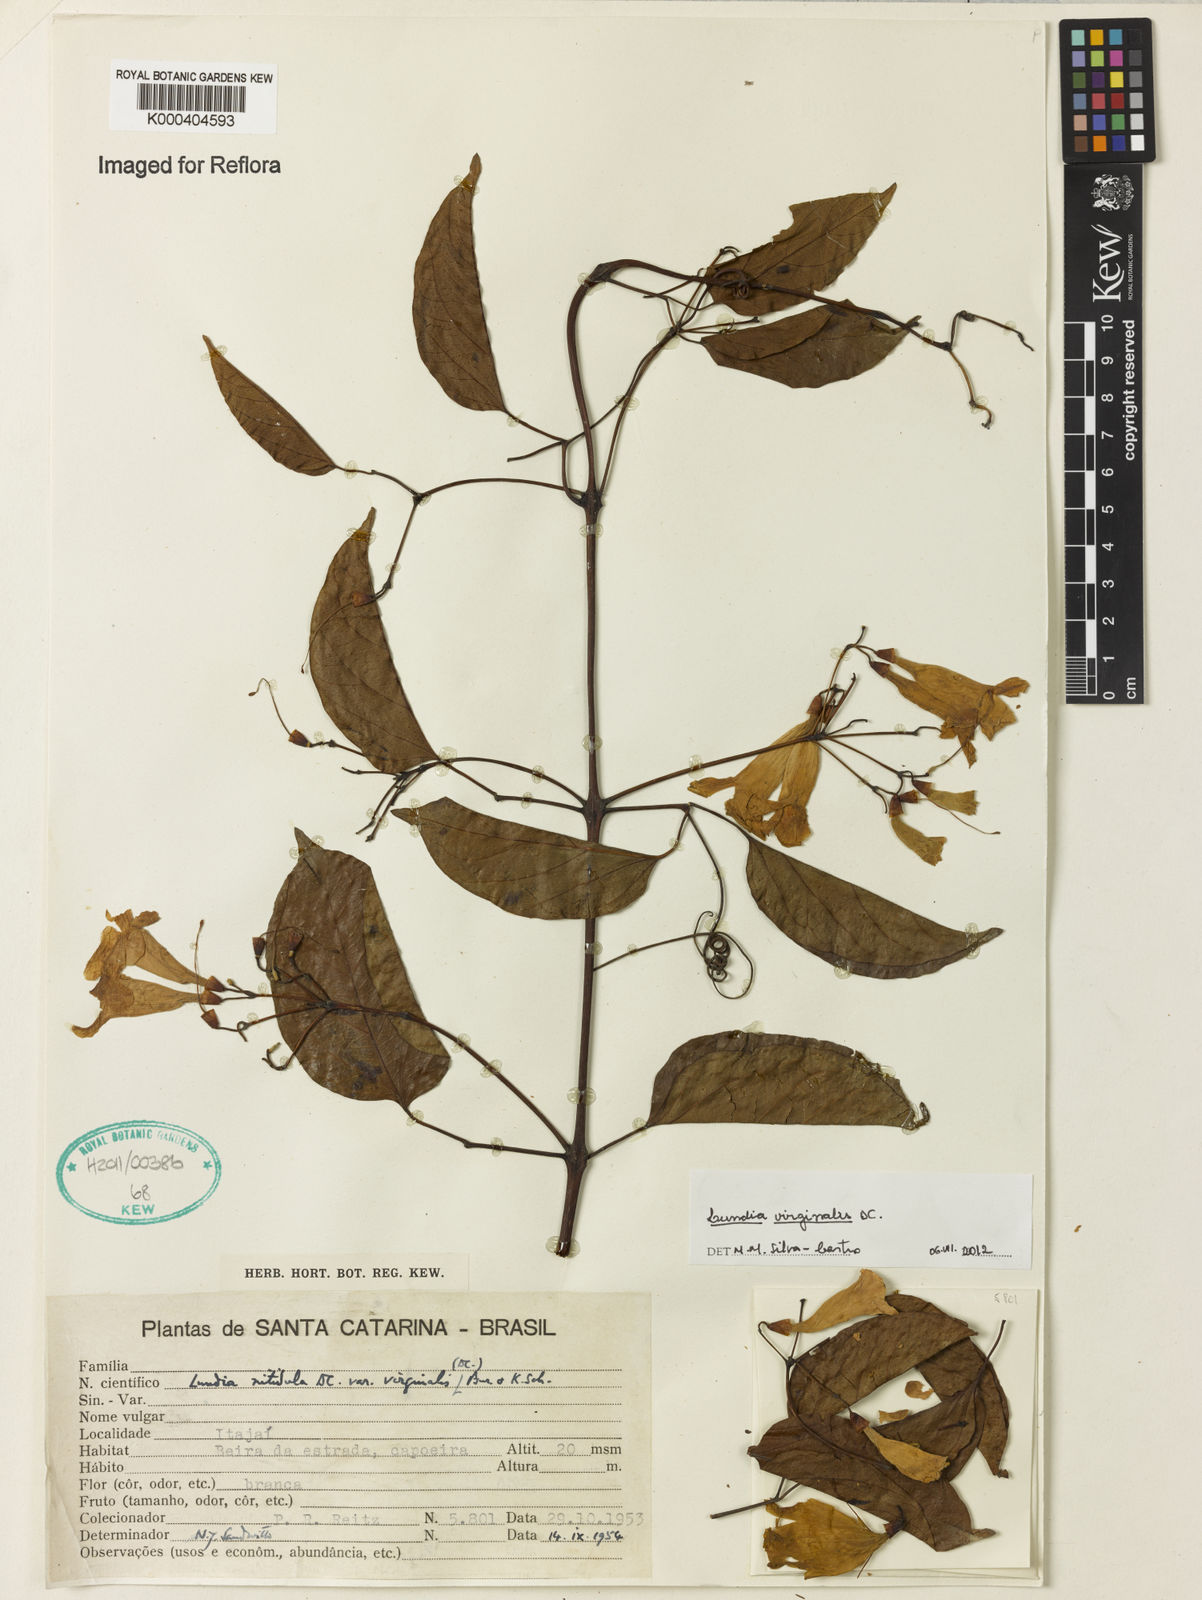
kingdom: Plantae
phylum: Tracheophyta
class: Magnoliopsida
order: Lamiales
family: Bignoniaceae
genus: Lundia
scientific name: Lundia virginalis
